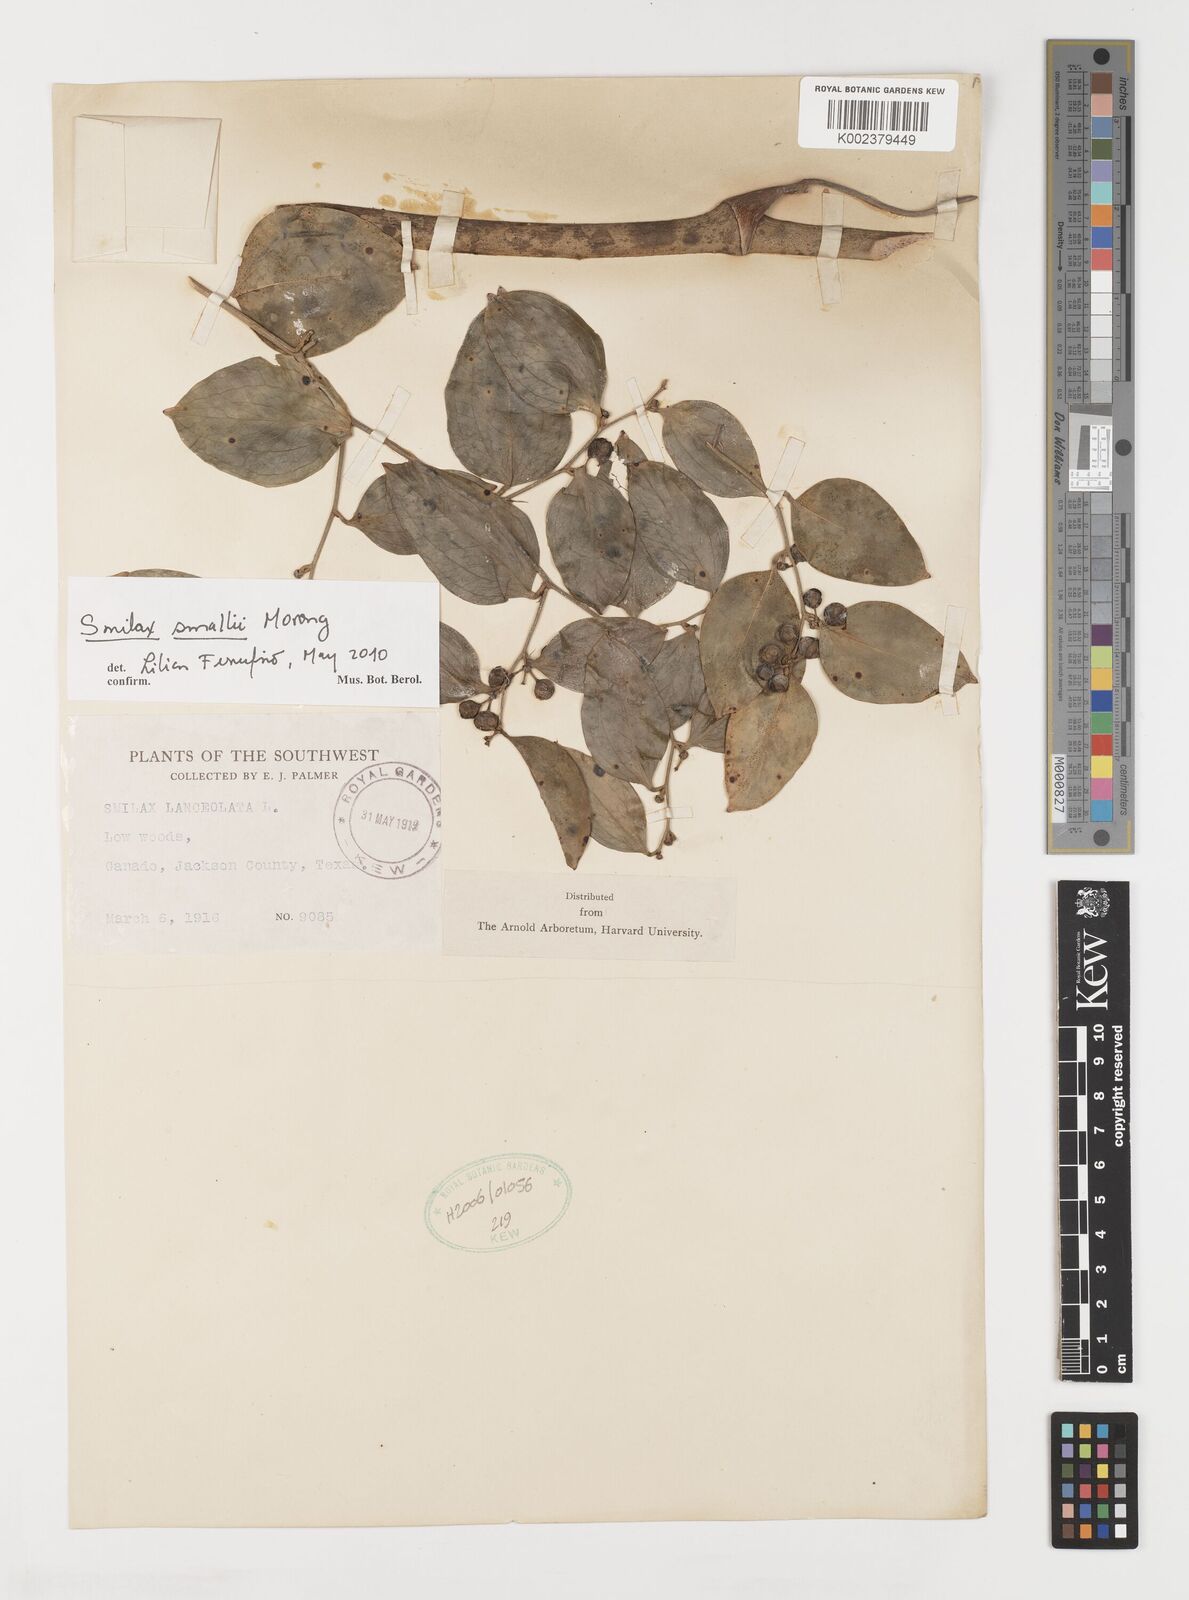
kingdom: Plantae
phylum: Tracheophyta
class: Liliopsida
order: Liliales
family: Smilacaceae
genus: Smilax
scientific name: Smilax maritima
